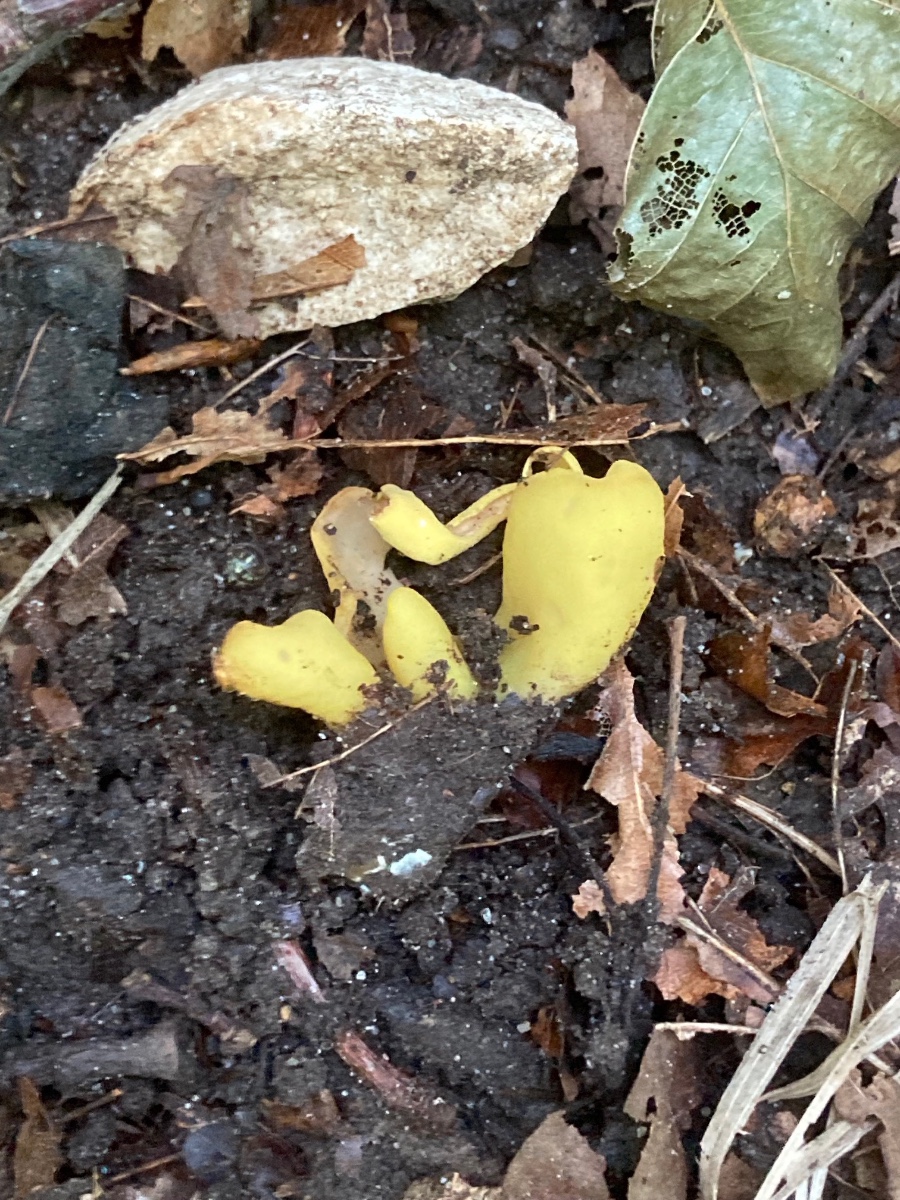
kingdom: Fungi
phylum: Ascomycota
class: Pezizomycetes
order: Pezizales
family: Otideaceae
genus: Otidea
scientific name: Otidea cantharella
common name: citrongul ørebæger
